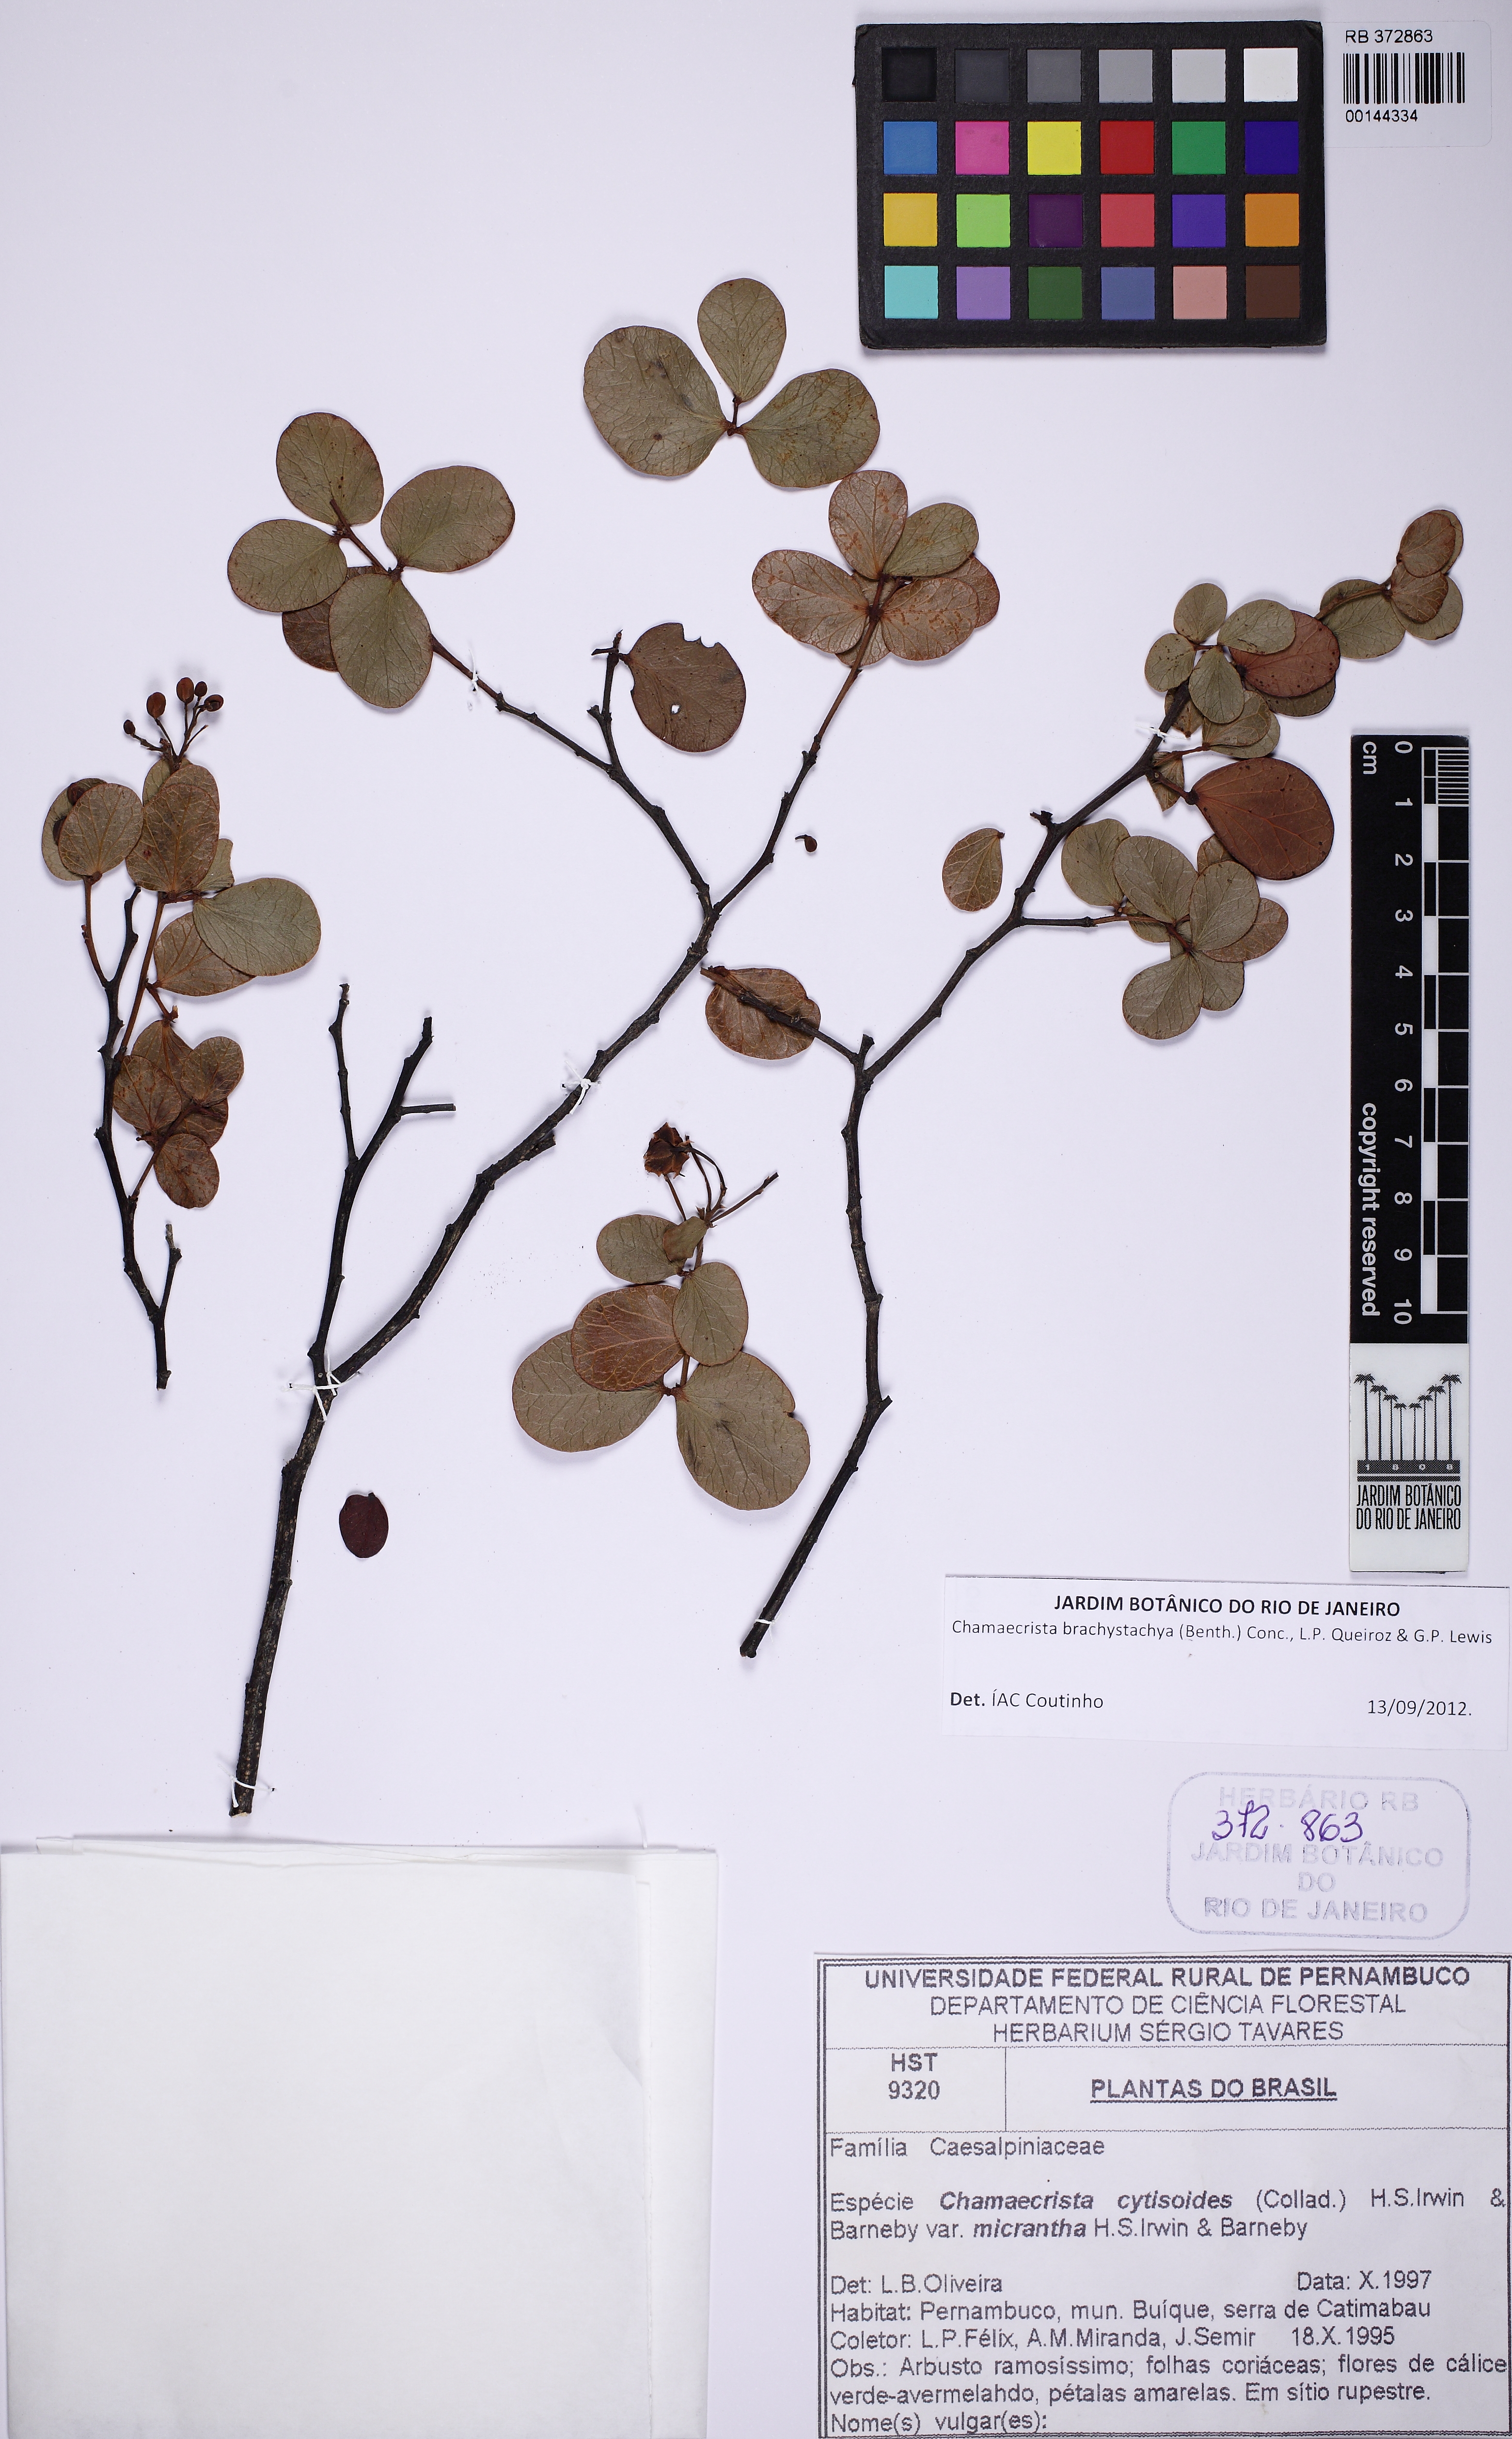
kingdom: Plantae
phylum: Tracheophyta
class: Magnoliopsida
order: Fabales
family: Fabaceae
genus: Chamaecrista
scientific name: Chamaecrista brachystachya
